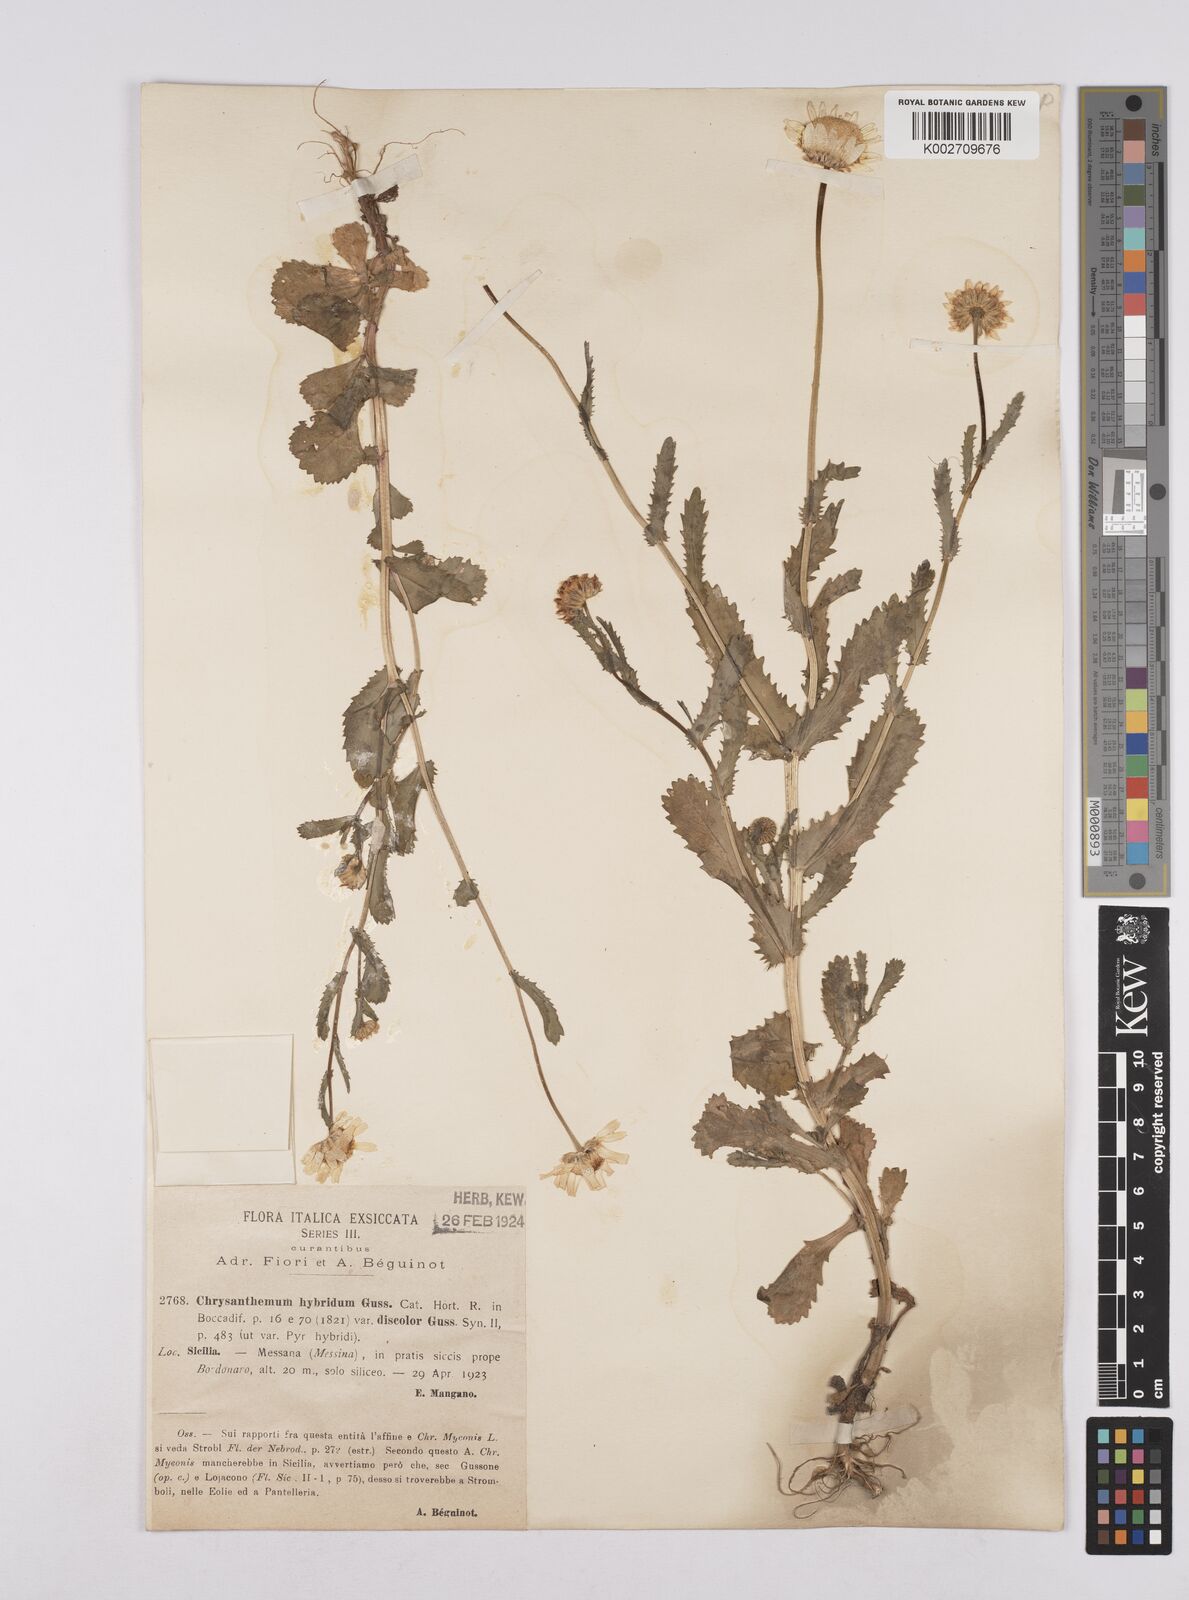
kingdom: Plantae
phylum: Tracheophyta
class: Magnoliopsida
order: Asterales
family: Asteraceae
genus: Coleostephus
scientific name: Coleostephus paludosus
